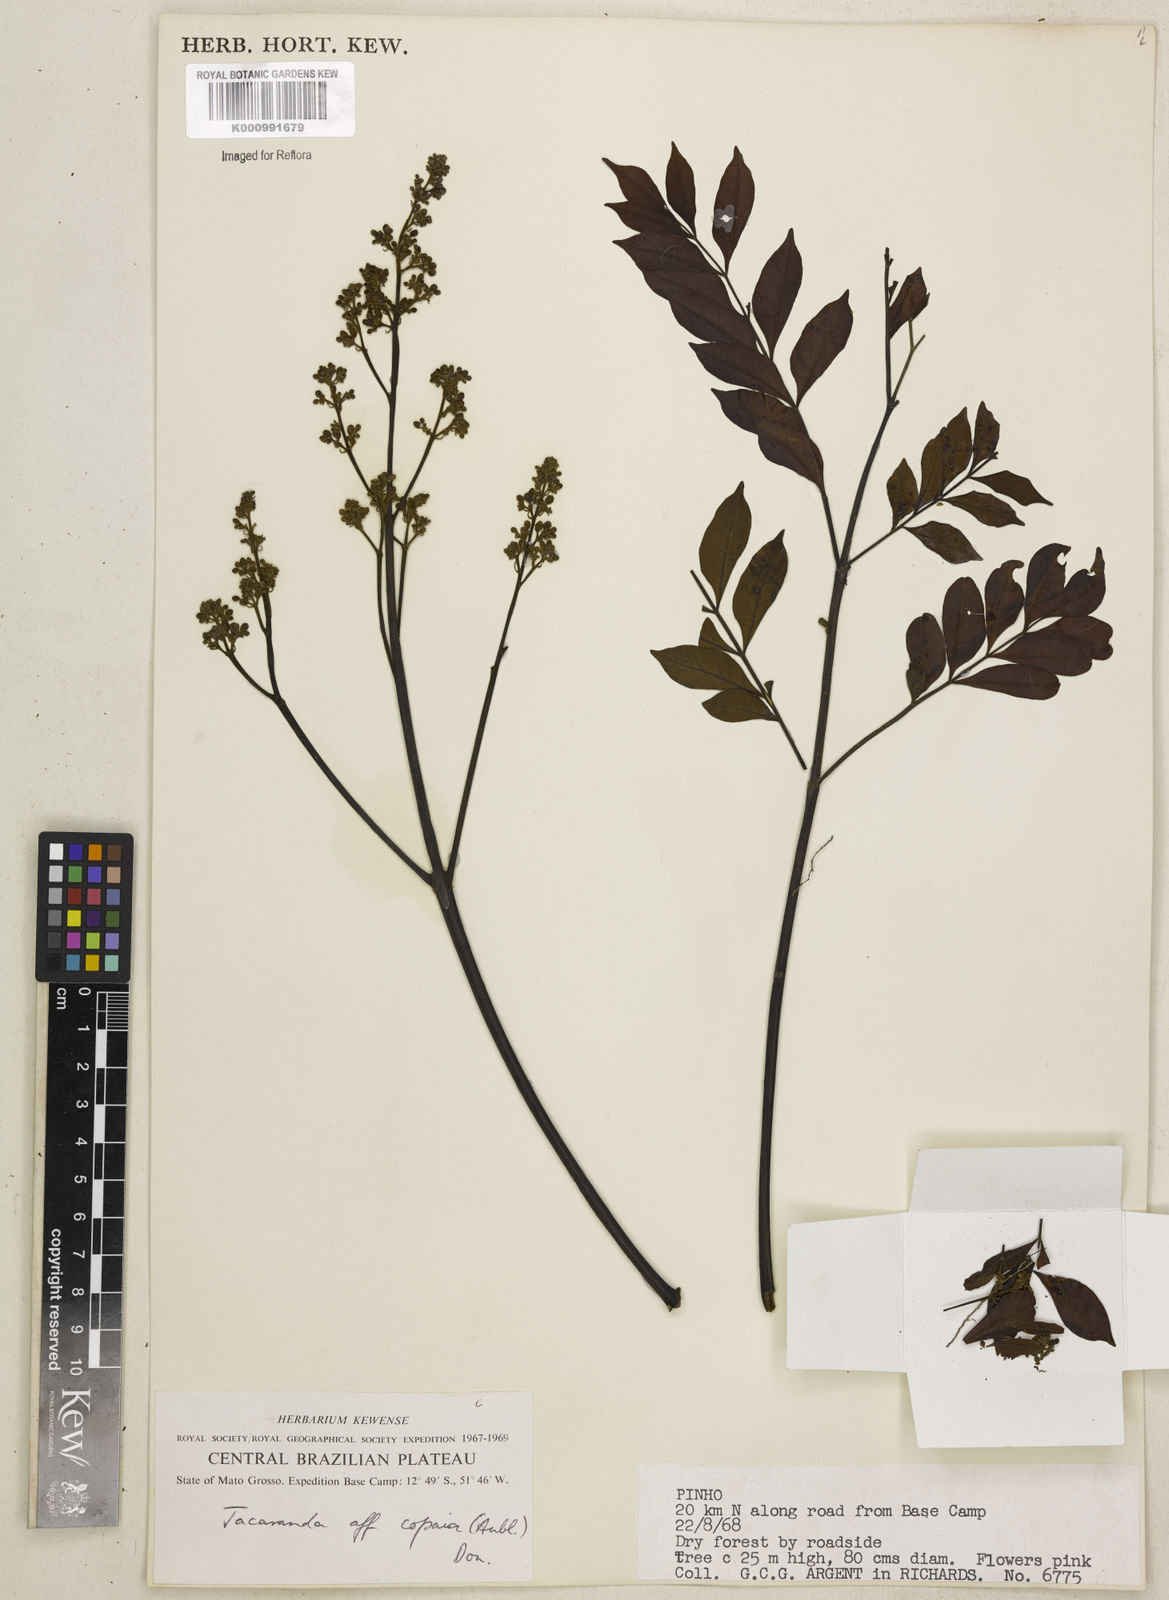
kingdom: Plantae
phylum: Tracheophyta
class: Magnoliopsida
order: Lamiales
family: Bignoniaceae
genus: Jacaranda
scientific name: Jacaranda
